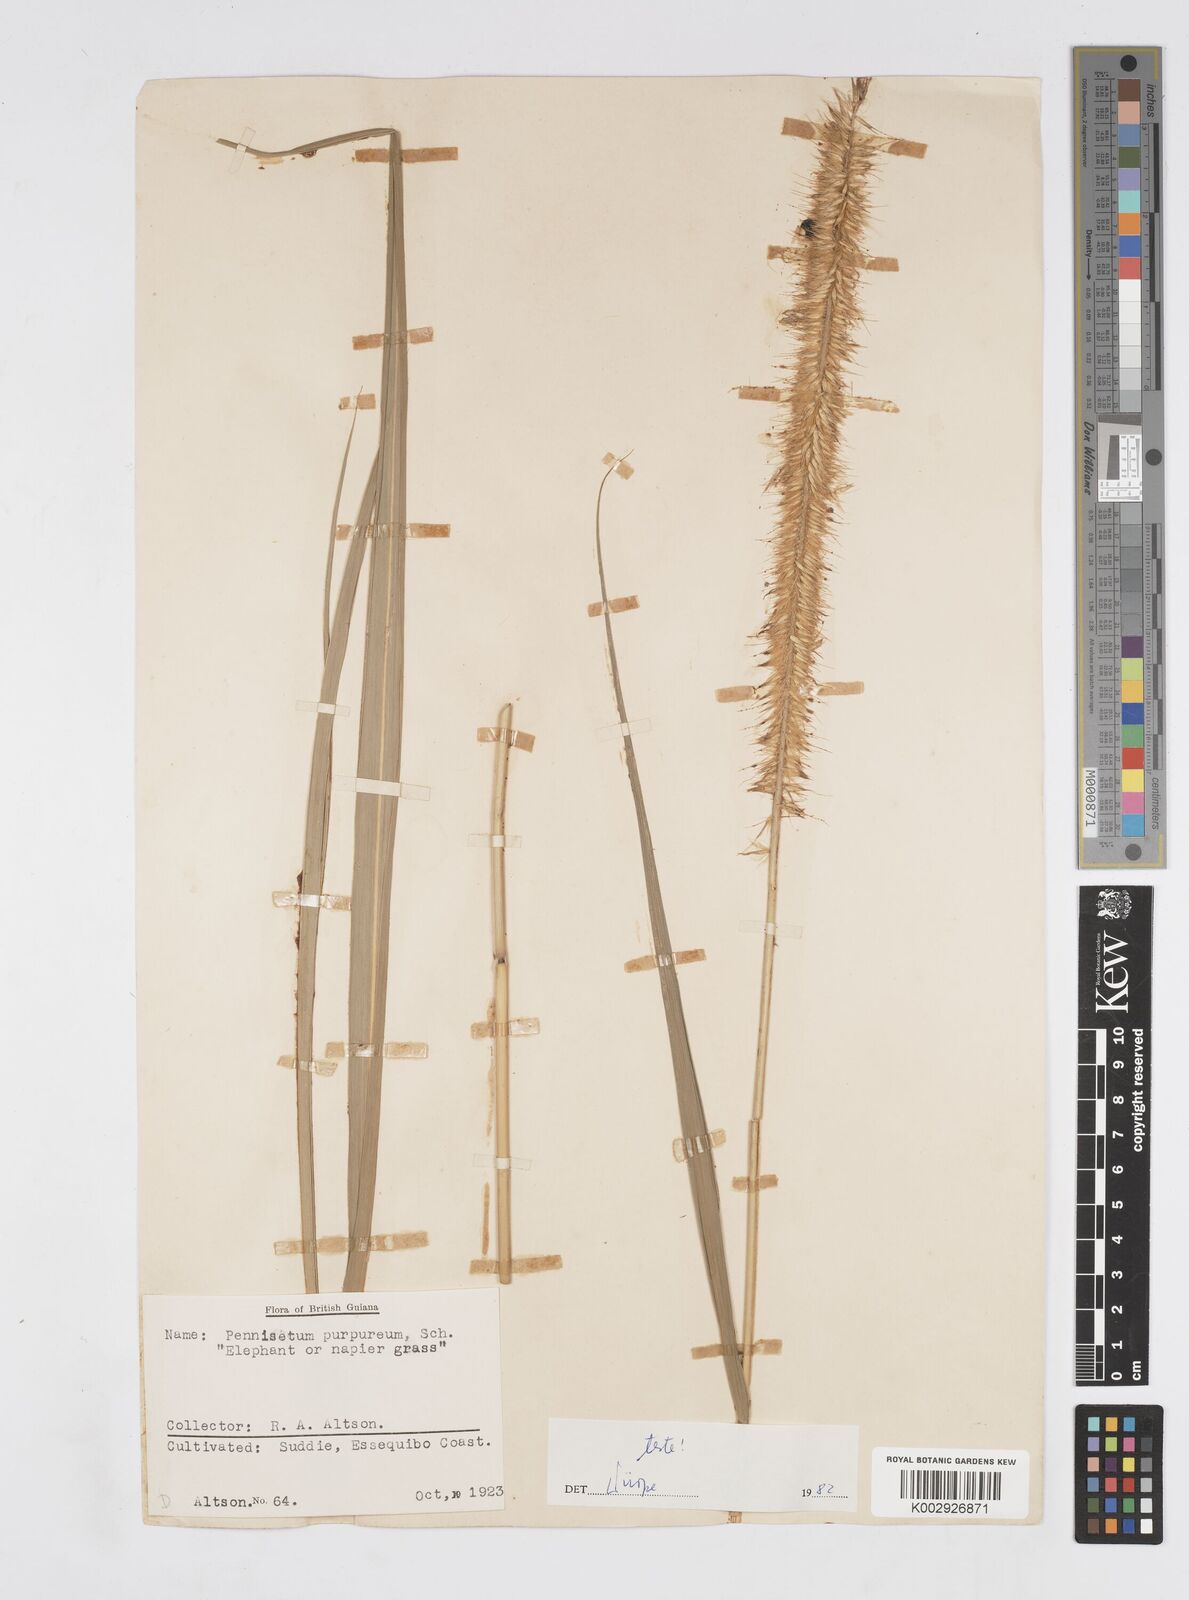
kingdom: Plantae
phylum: Tracheophyta
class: Liliopsida
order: Poales
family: Poaceae
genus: Cenchrus
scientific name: Cenchrus purpureus
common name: Elephant grass
